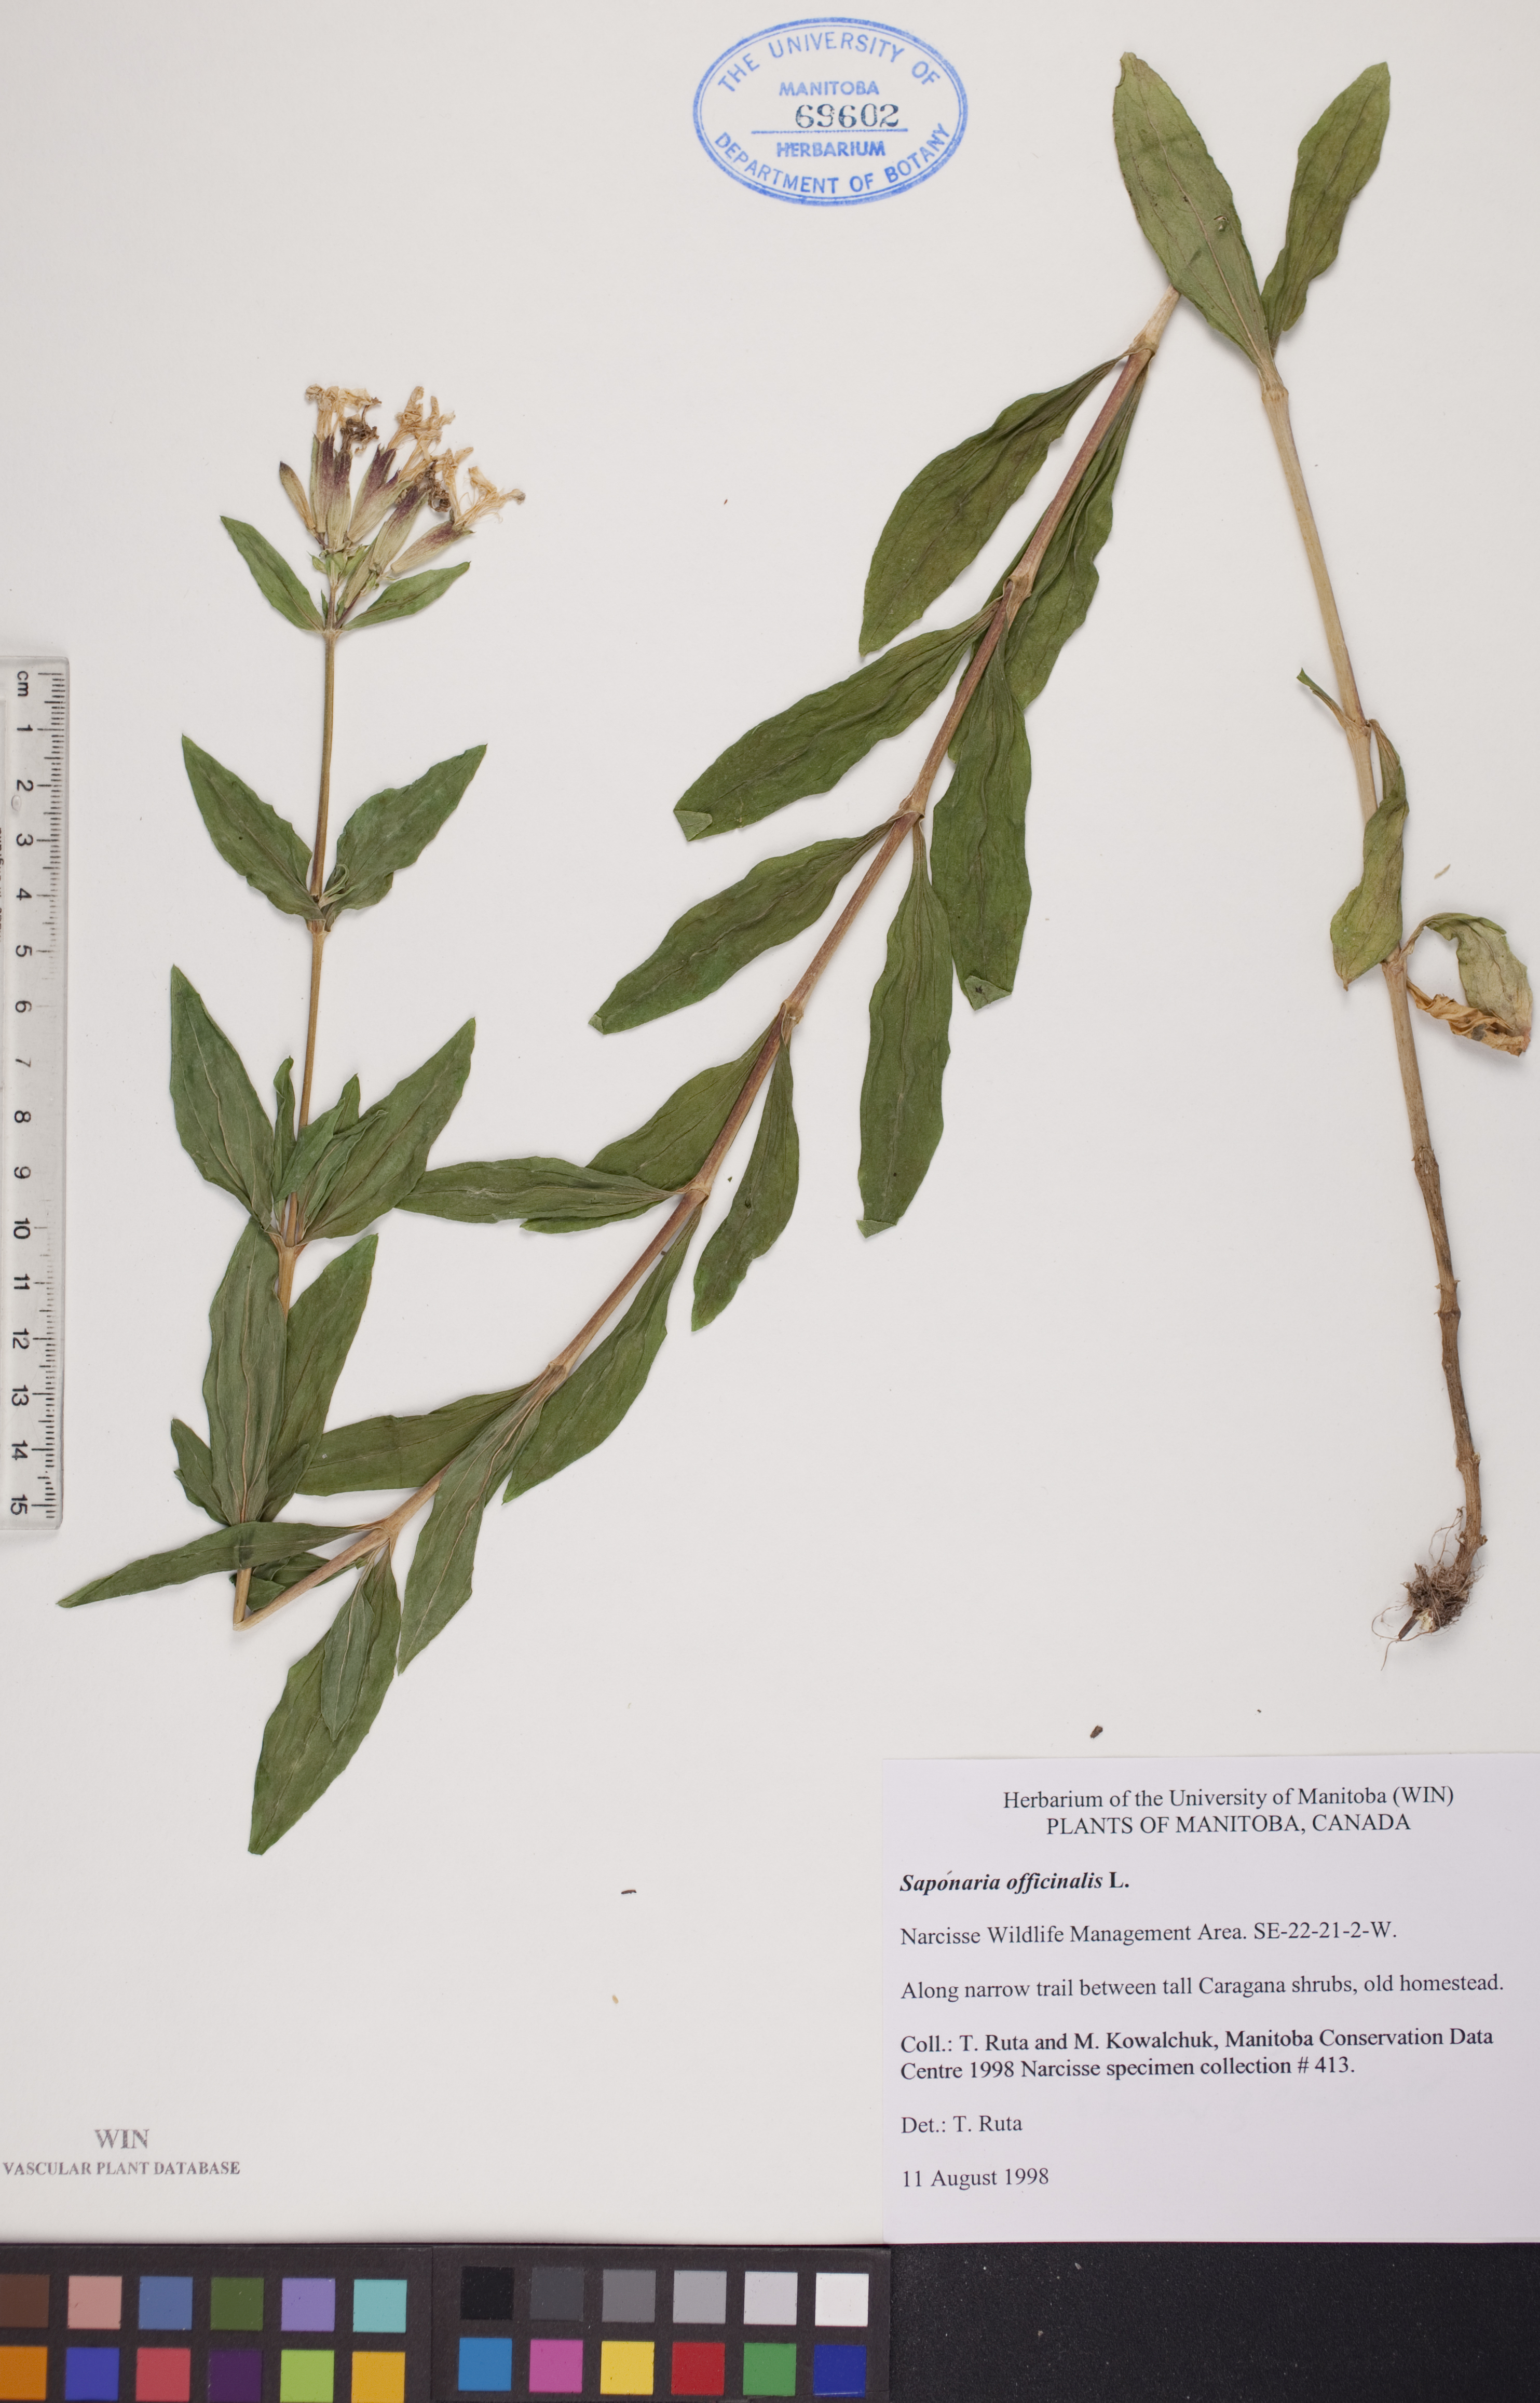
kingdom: Plantae
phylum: Tracheophyta
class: Magnoliopsida
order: Caryophyllales
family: Caryophyllaceae
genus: Saponaria
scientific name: Saponaria officinalis
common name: Soapwort
